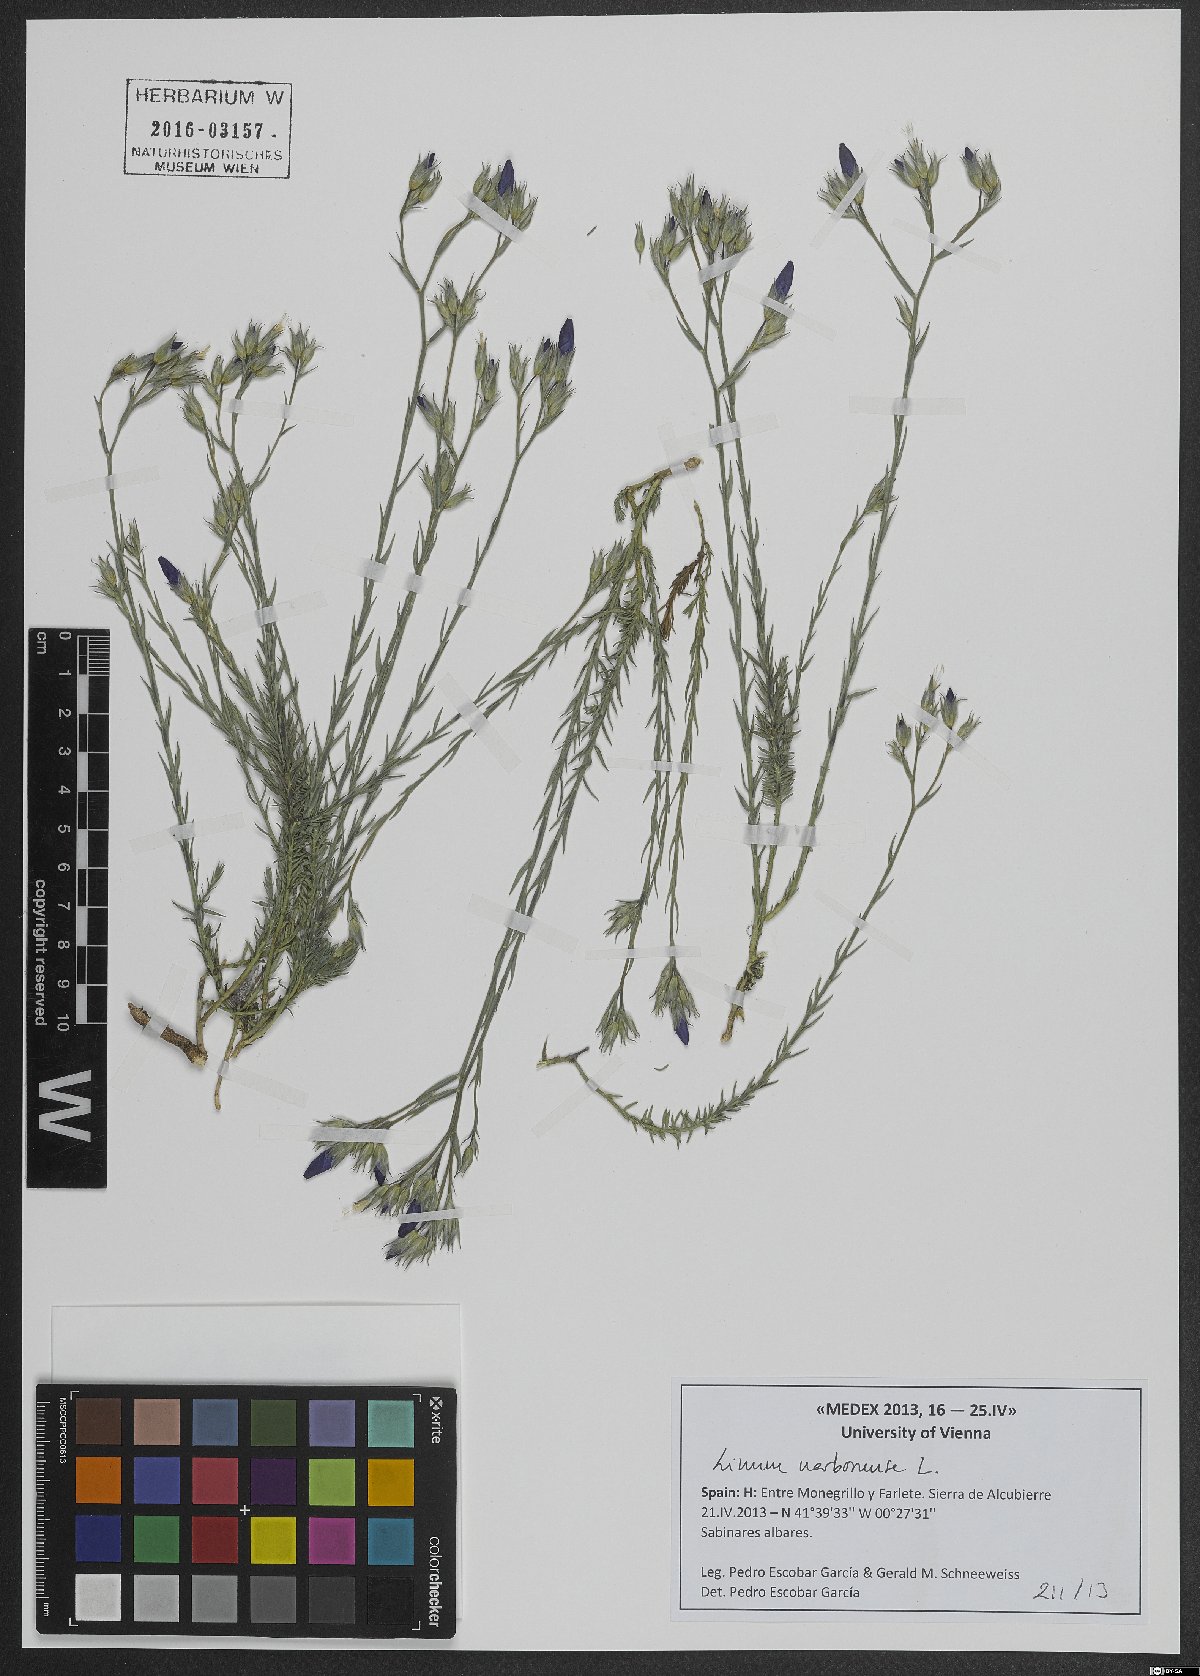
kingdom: Plantae
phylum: Tracheophyta
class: Magnoliopsida
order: Malpighiales
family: Linaceae
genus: Linum
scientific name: Linum narbonense
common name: Flax
